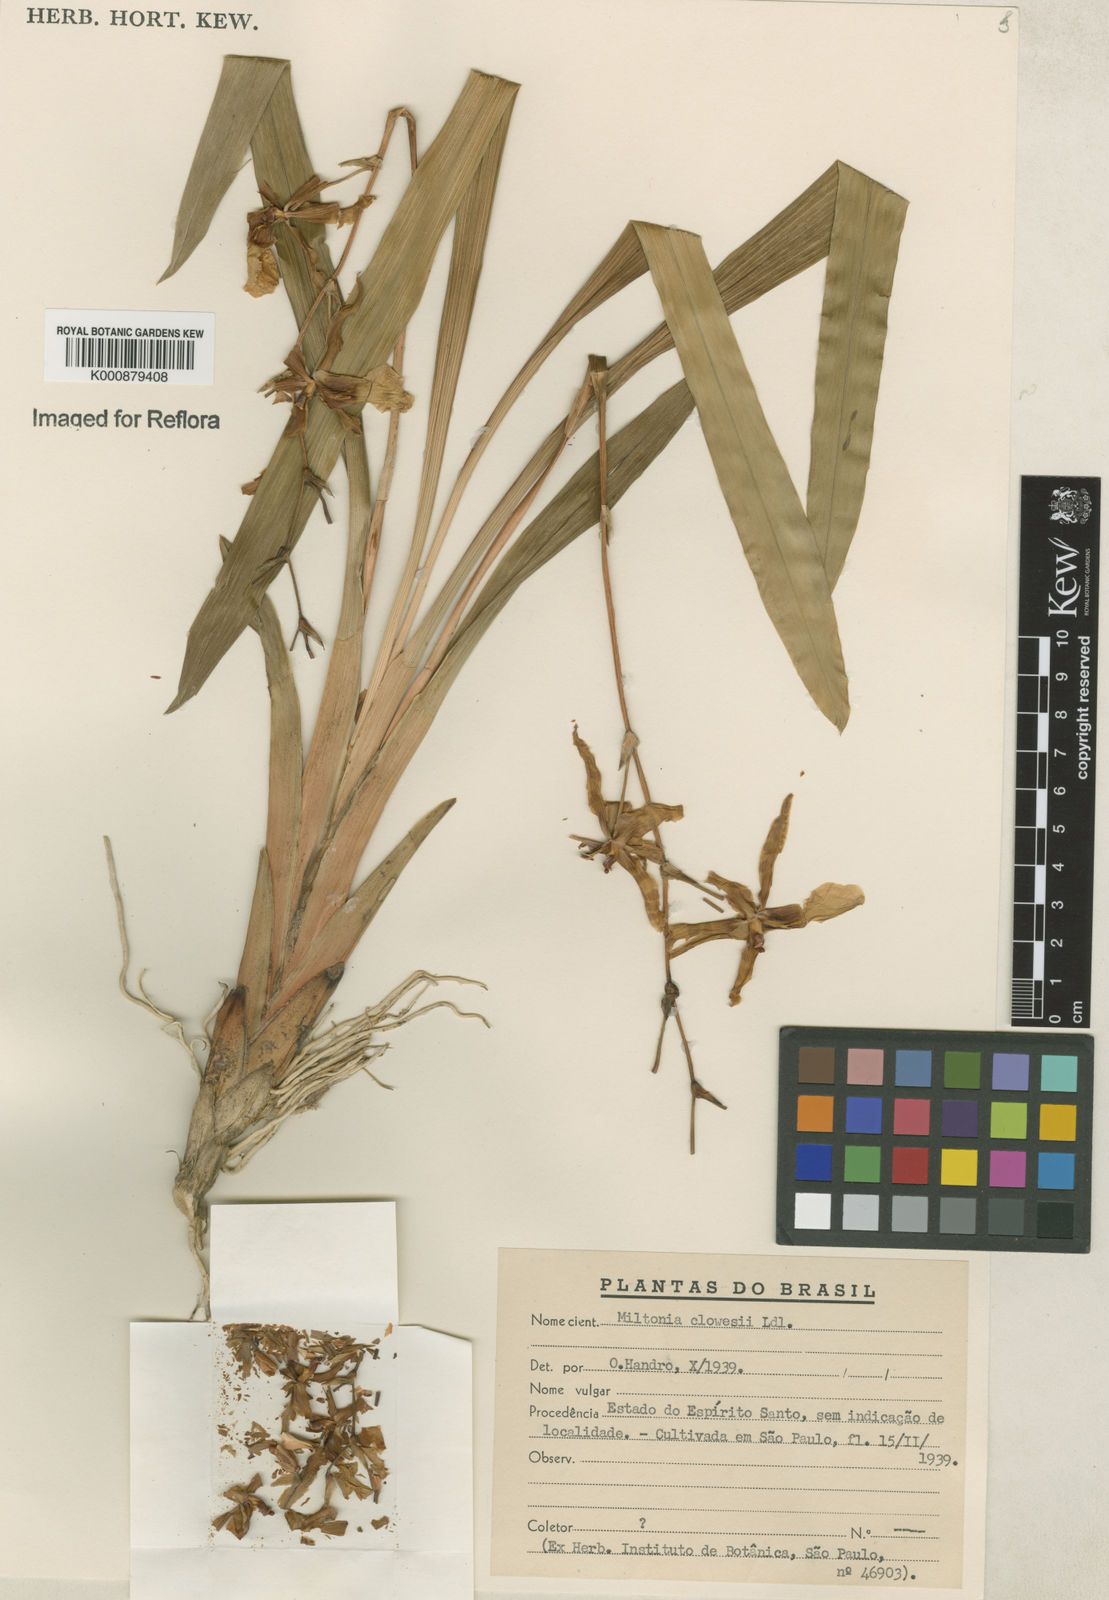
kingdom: Plantae
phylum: Tracheophyta
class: Liliopsida
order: Asparagales
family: Orchidaceae
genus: Miltonia
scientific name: Miltonia clowesii
